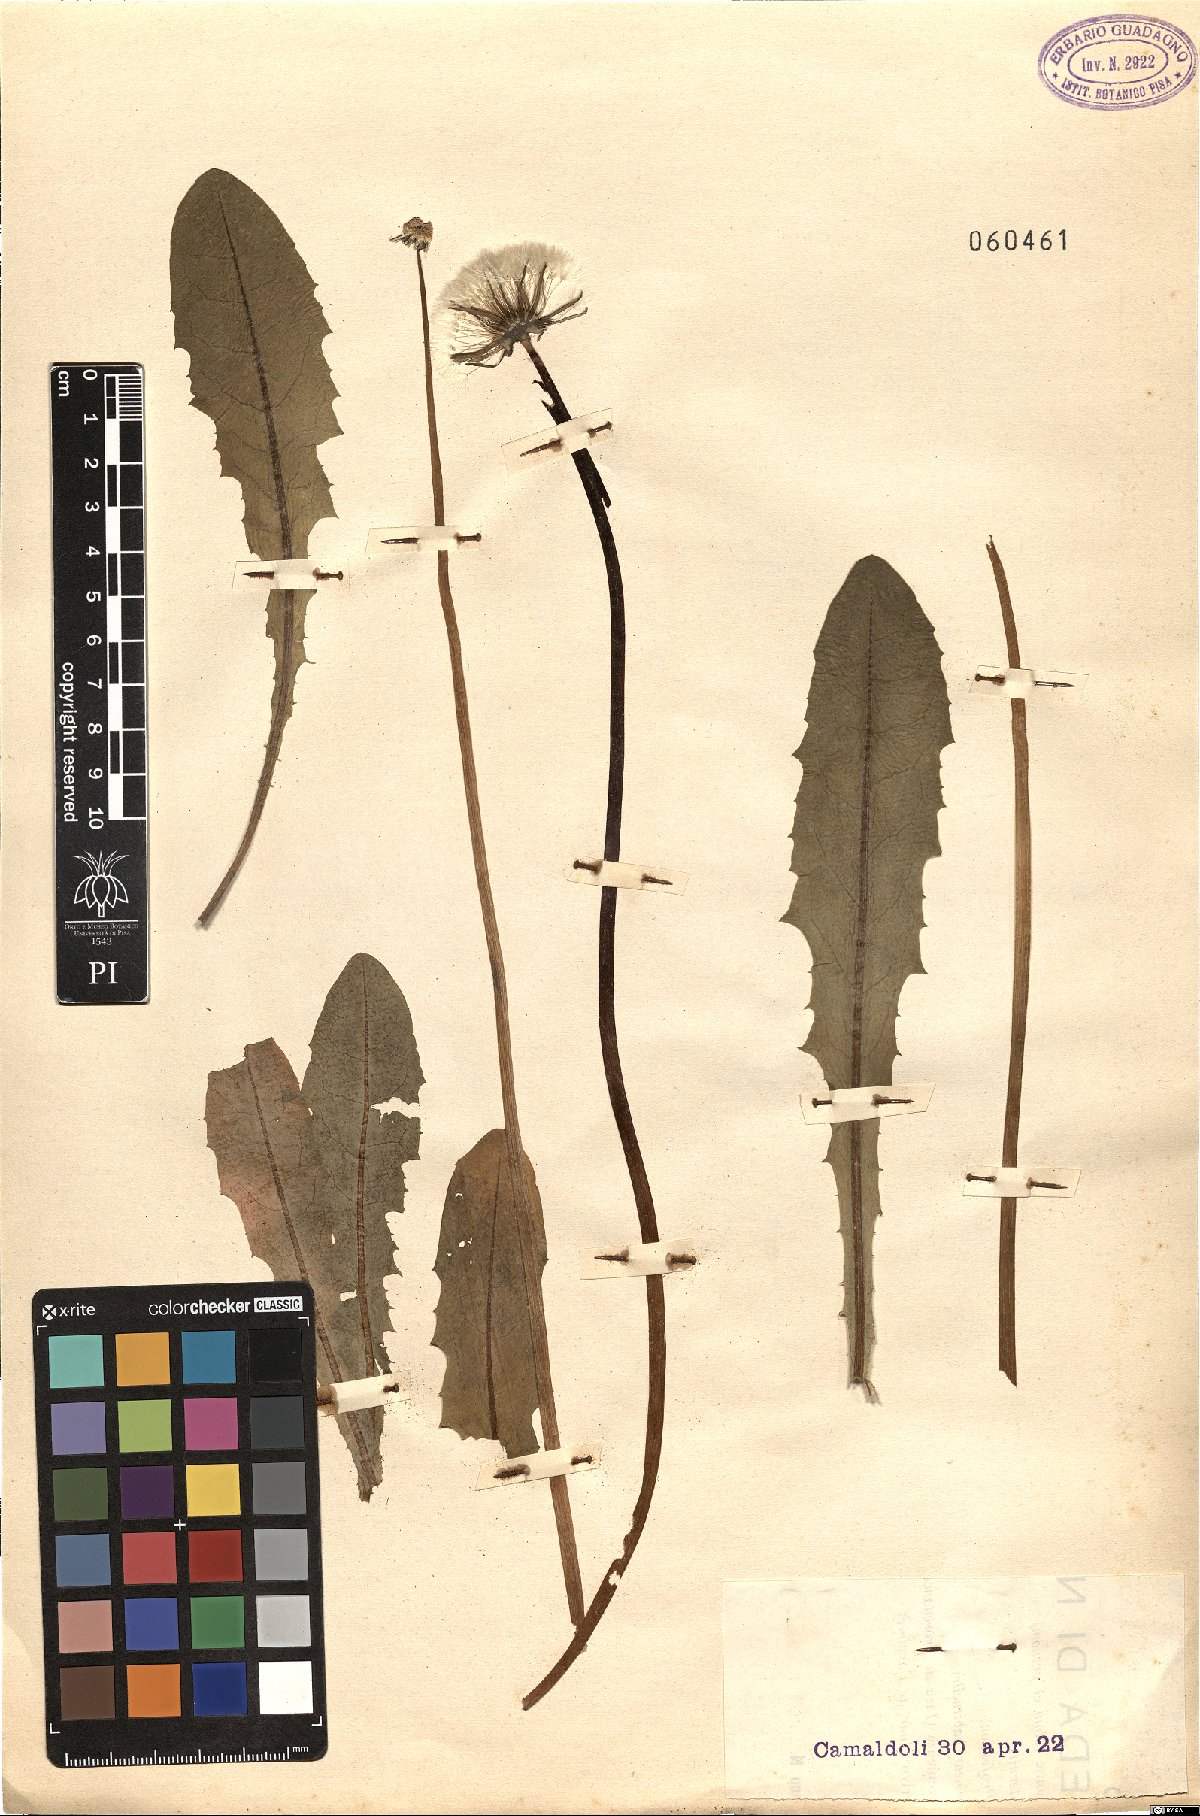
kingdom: Plantae
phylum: Tracheophyta
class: Magnoliopsida
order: Asterales
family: Asteraceae
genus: Taraxacum
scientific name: Taraxacum
